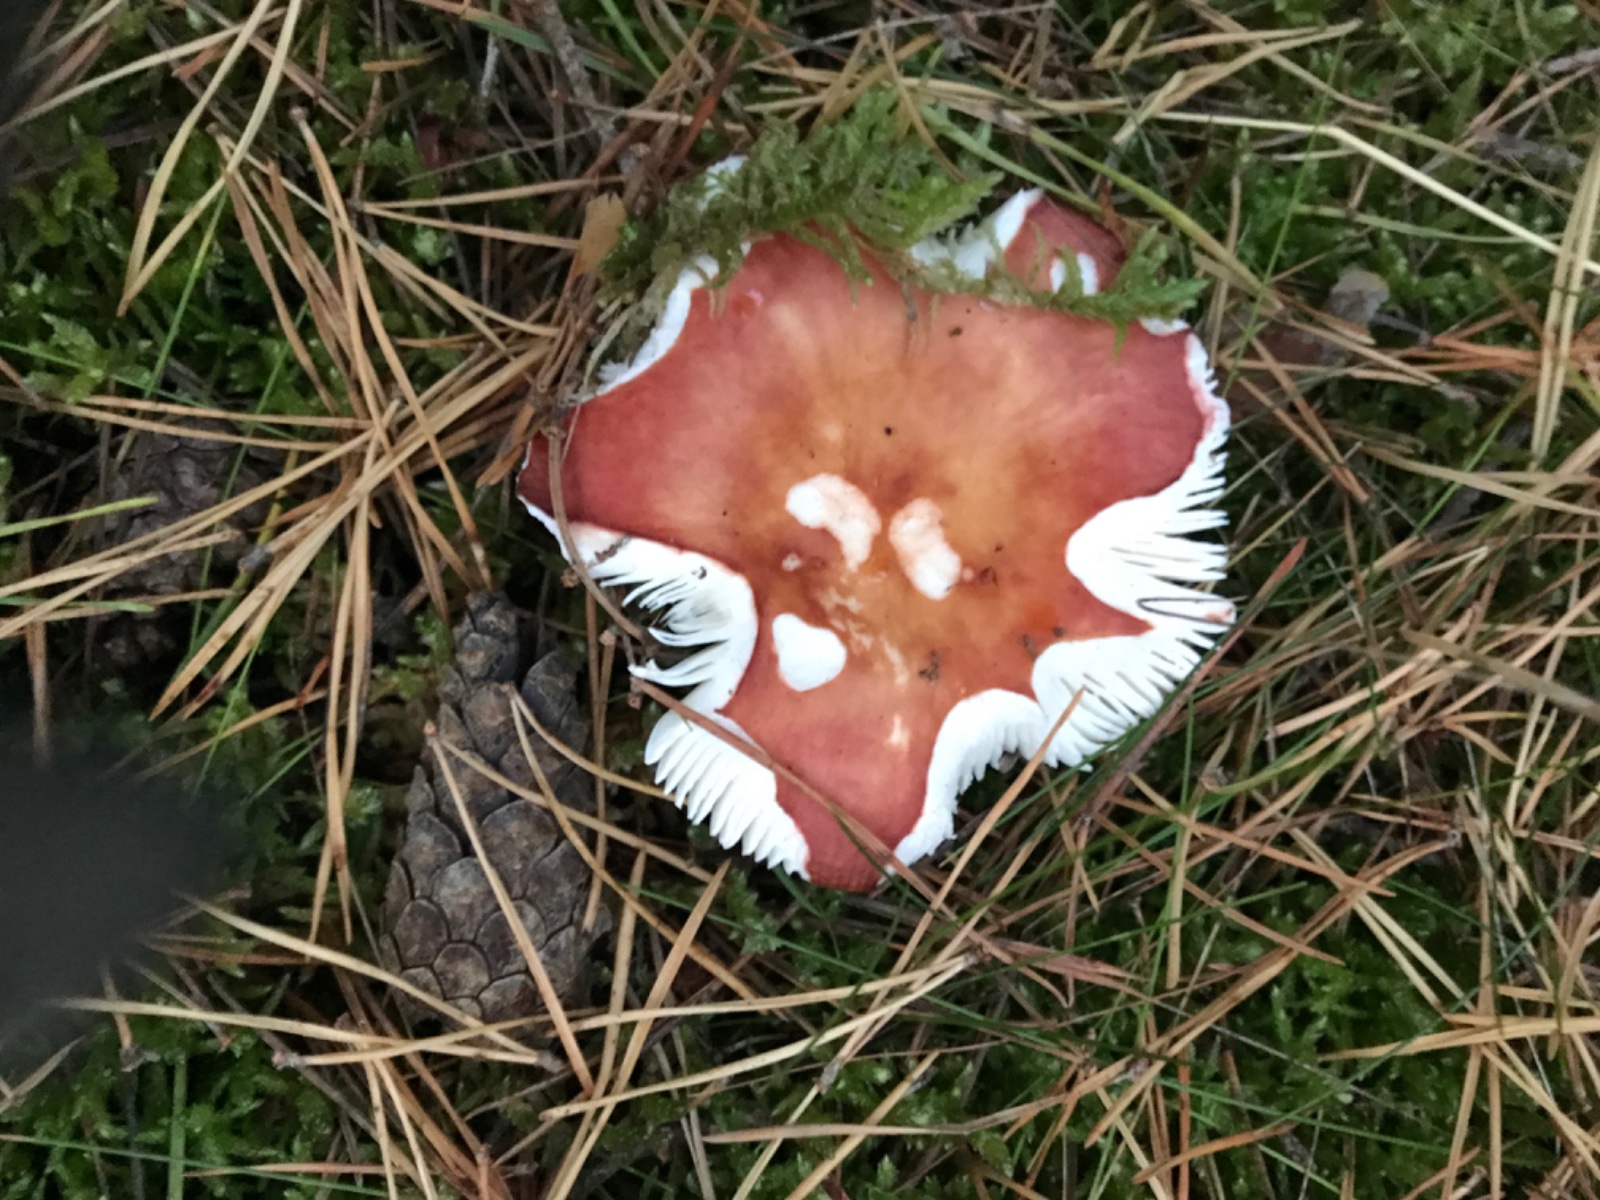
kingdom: Fungi
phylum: Basidiomycota
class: Agaricomycetes
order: Russulales
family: Russulaceae
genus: Russula
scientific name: Russula velenovskyi
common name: orangerød skørhat
